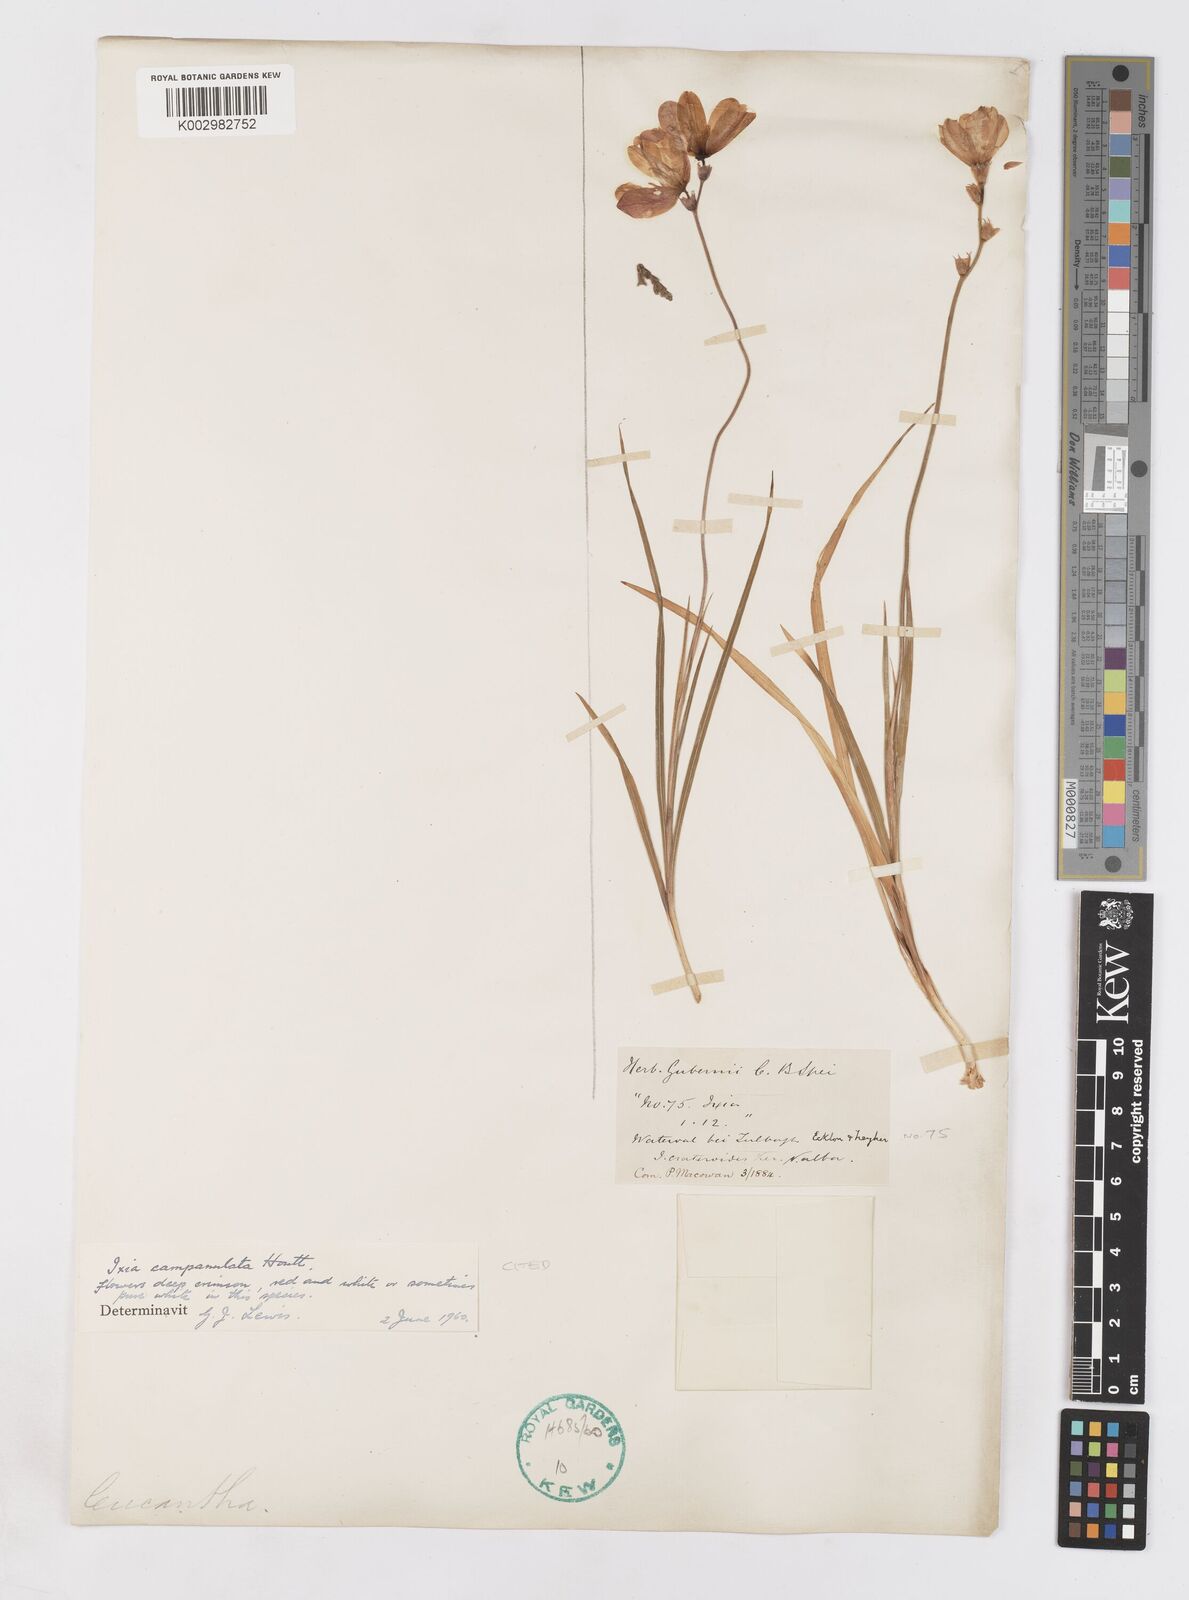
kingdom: Plantae
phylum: Tracheophyta
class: Liliopsida
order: Asparagales
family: Iridaceae
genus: Ixia
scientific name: Ixia campanulata
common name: Red corn-lily
